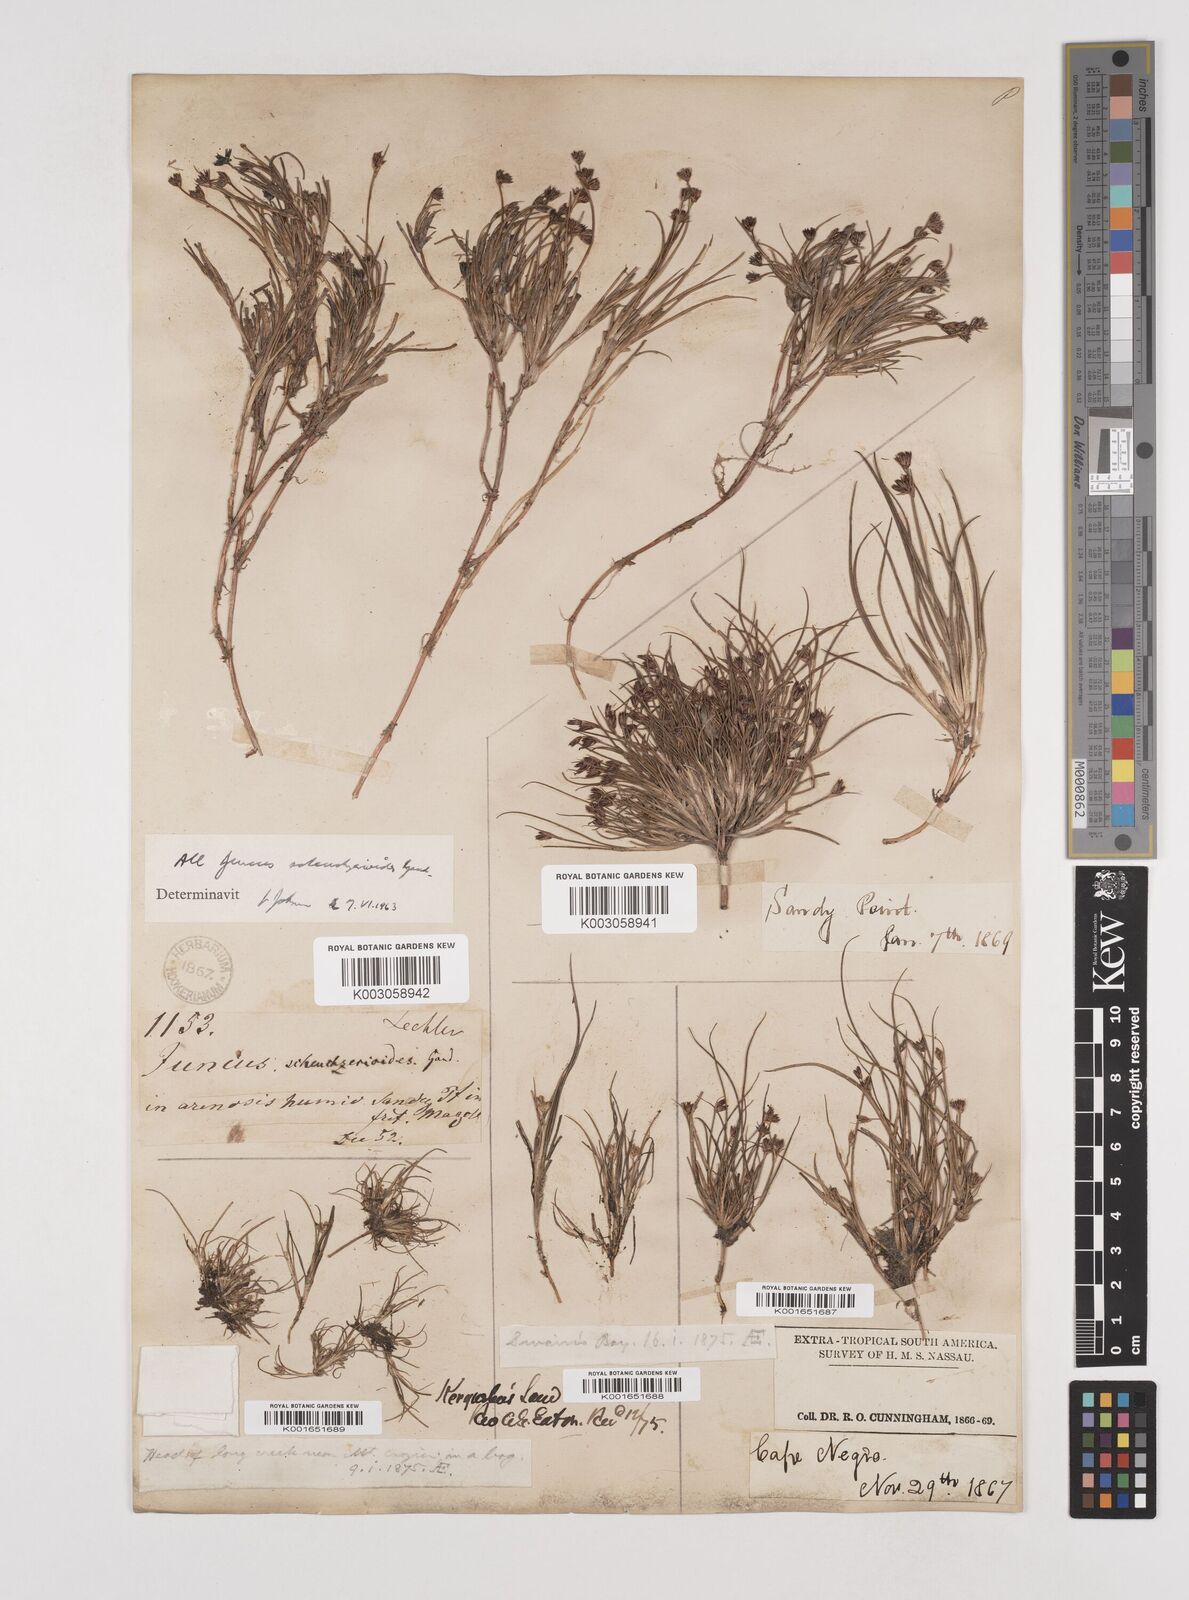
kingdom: Plantae
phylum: Tracheophyta
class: Liliopsida
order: Poales
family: Juncaceae
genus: Juncus
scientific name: Juncus scheuchzerioides
